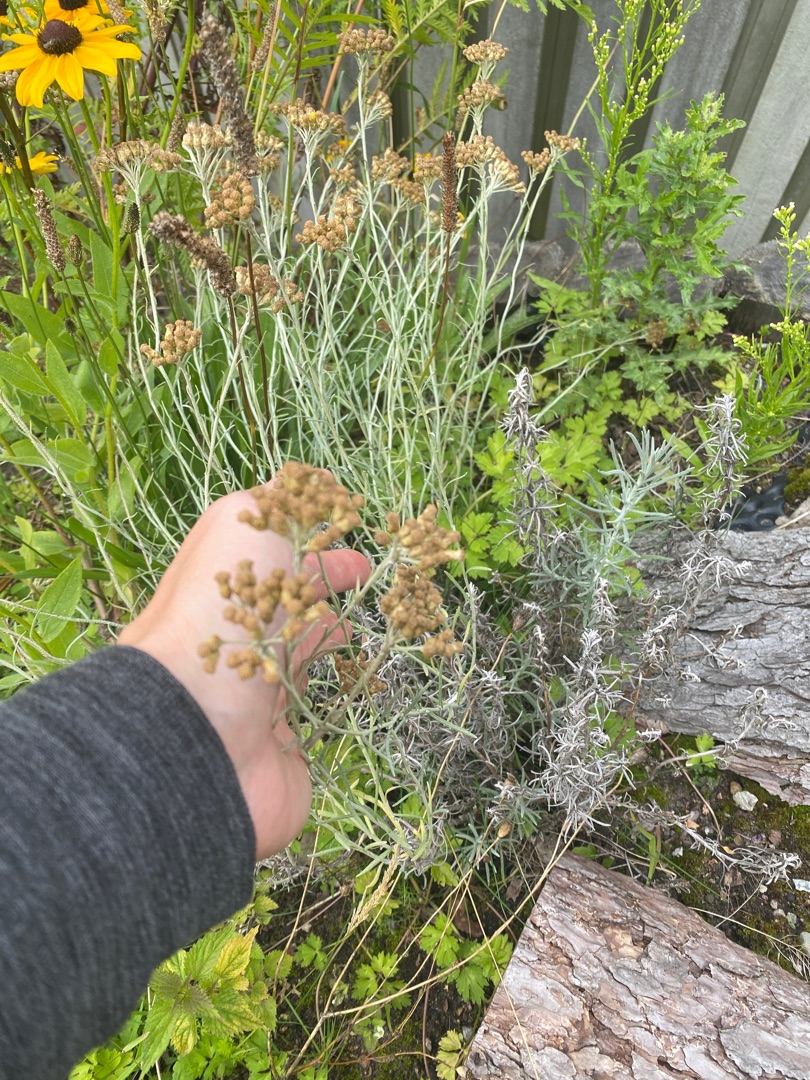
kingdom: Plantae
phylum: Tracheophyta
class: Magnoliopsida
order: Asterales
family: Asteraceae
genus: Helichrysum
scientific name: Helichrysum italicum
